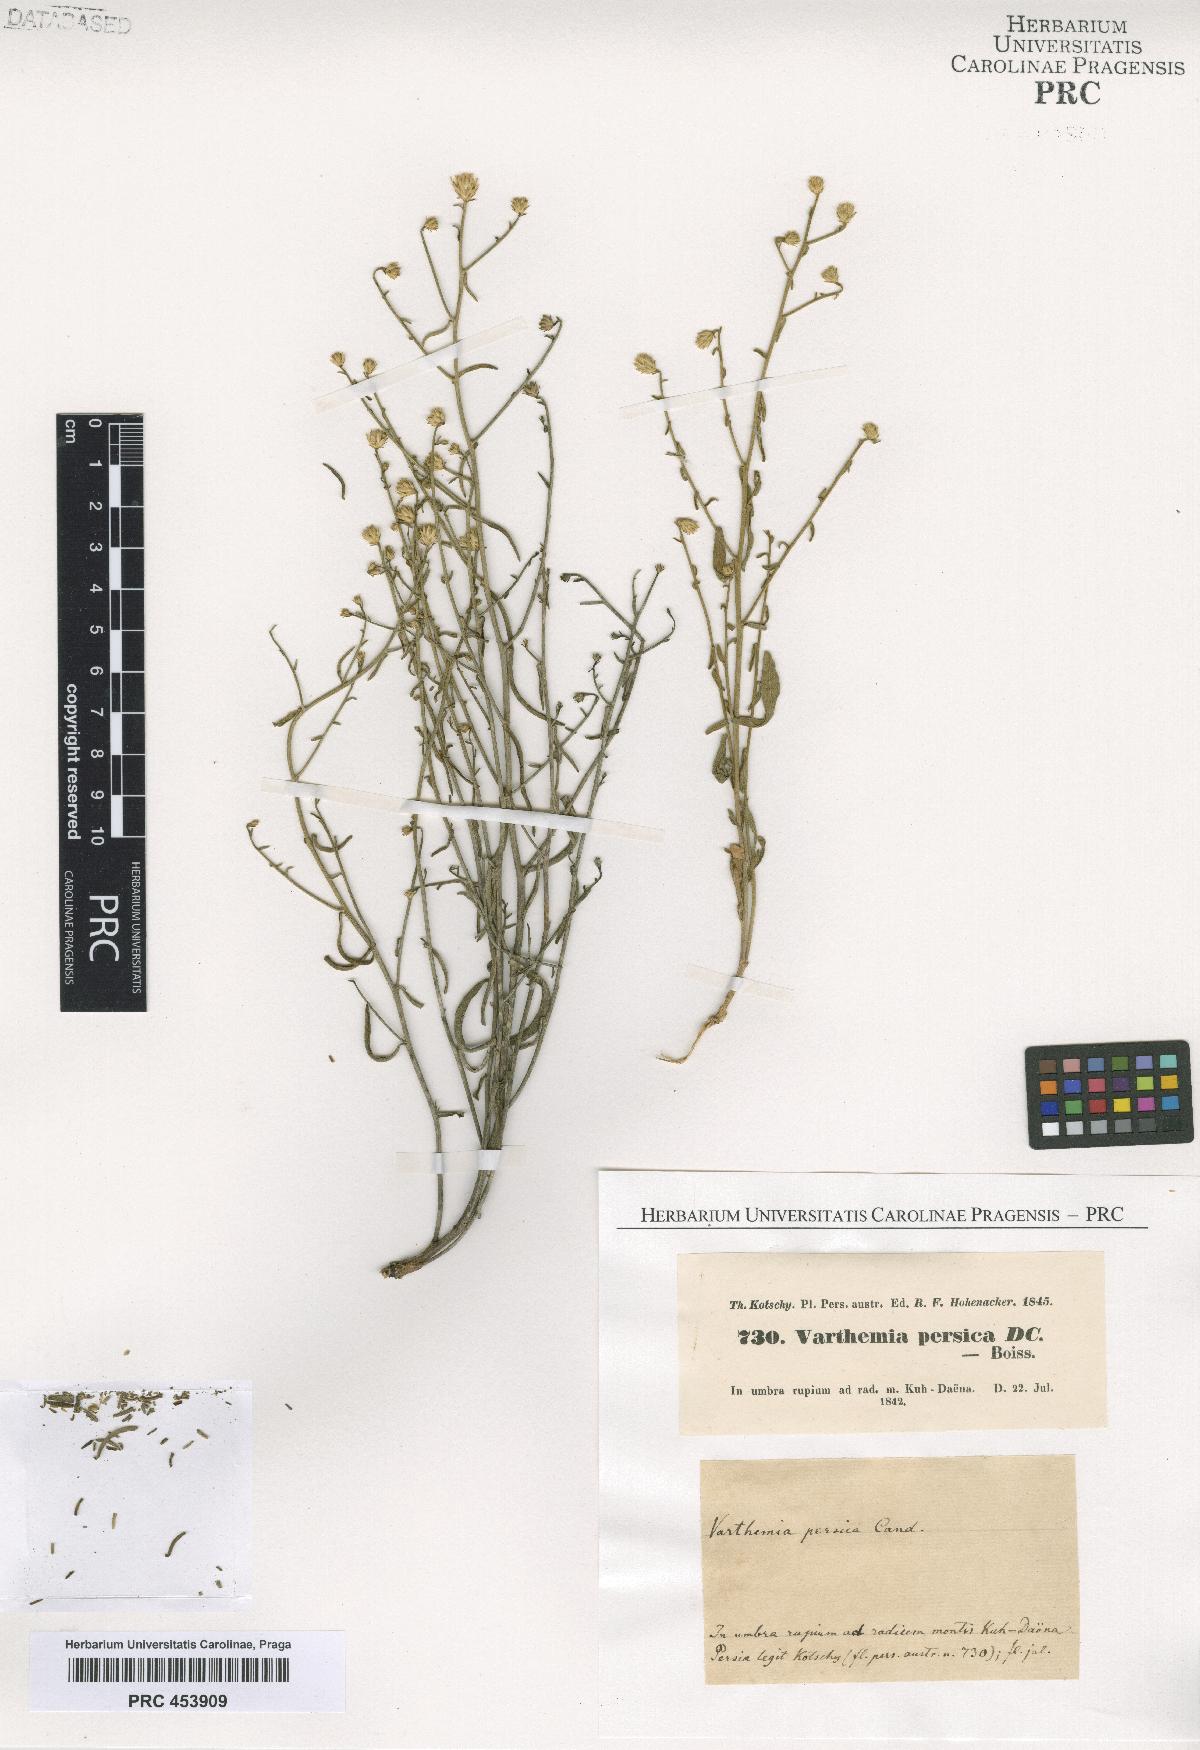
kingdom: Plantae
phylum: Tracheophyta
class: Magnoliopsida
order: Asterales
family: Asteraceae
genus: Pentanema
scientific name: Pentanema persicum
